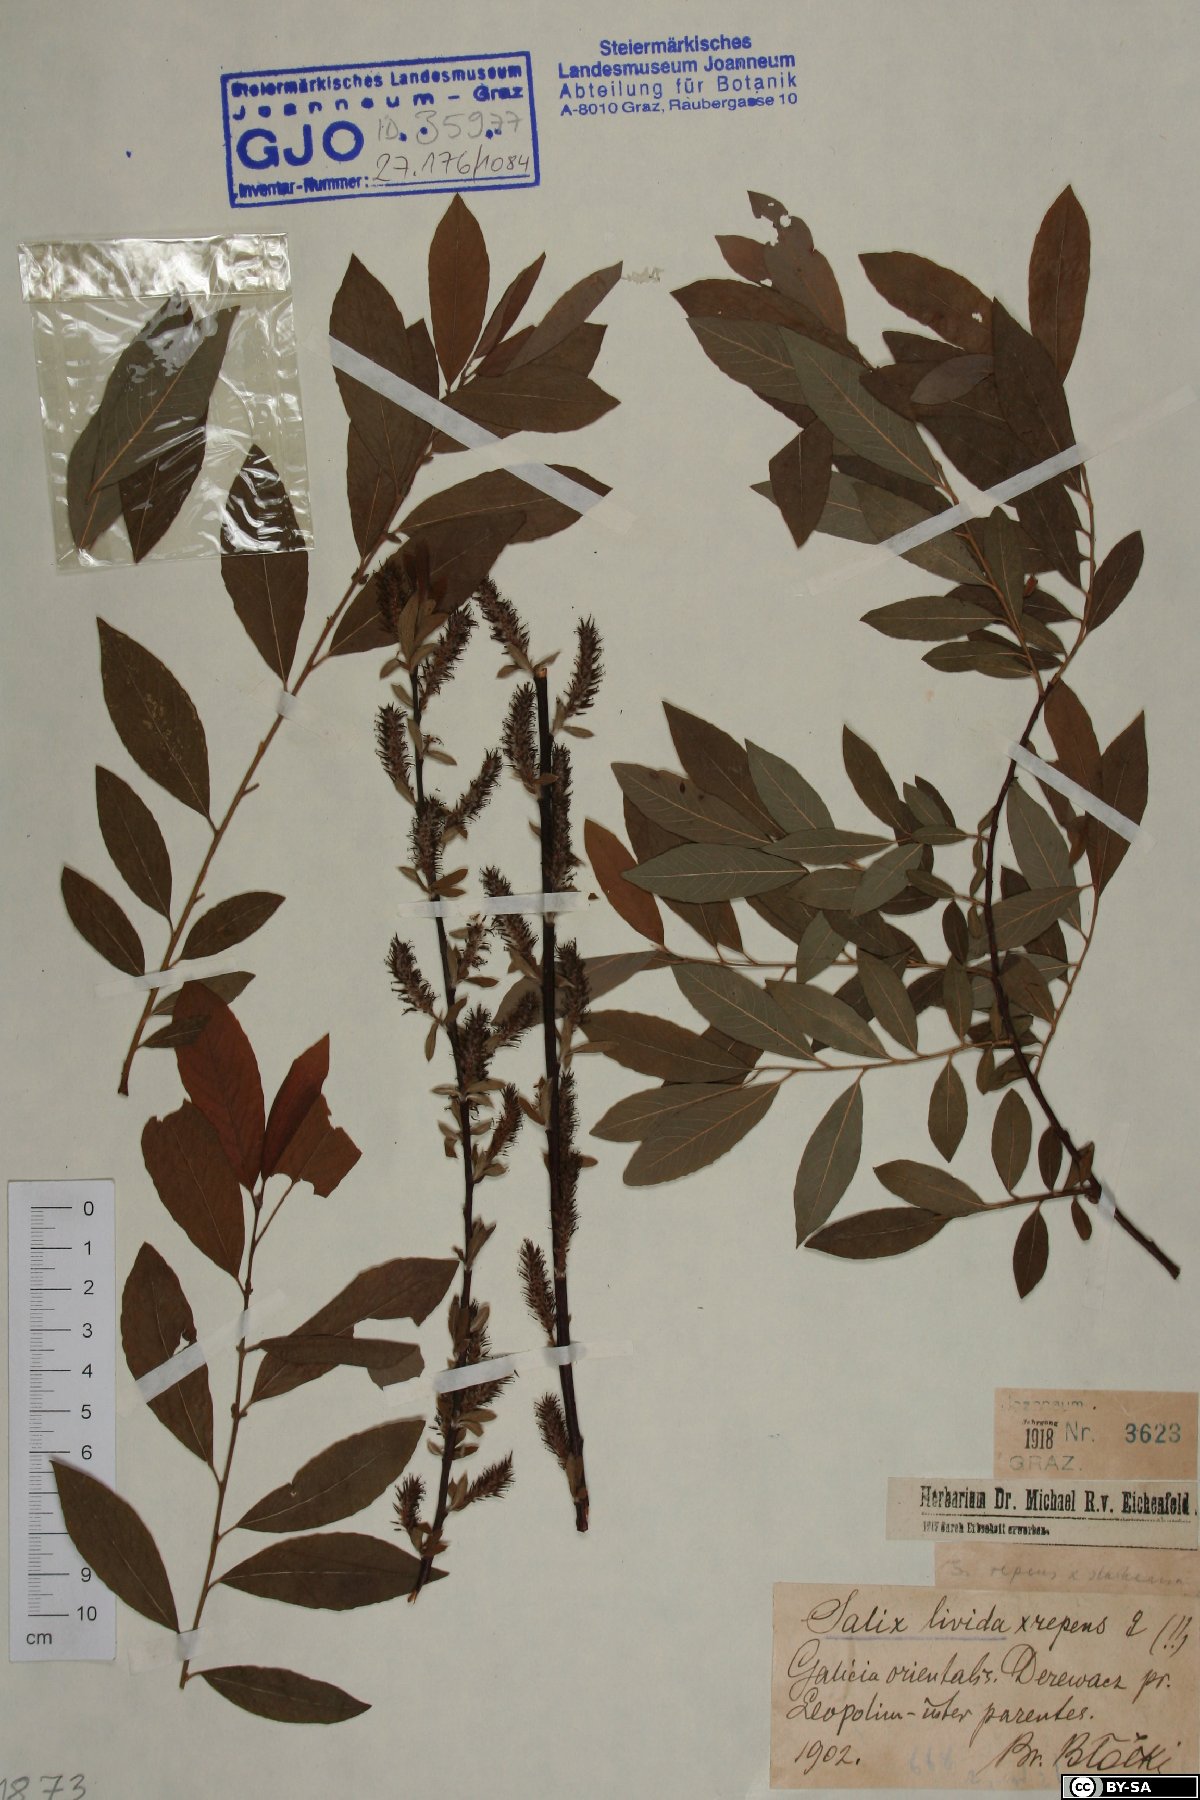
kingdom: Plantae
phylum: Tracheophyta
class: Magnoliopsida
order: Malpighiales
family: Salicaceae
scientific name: Salicaceae
